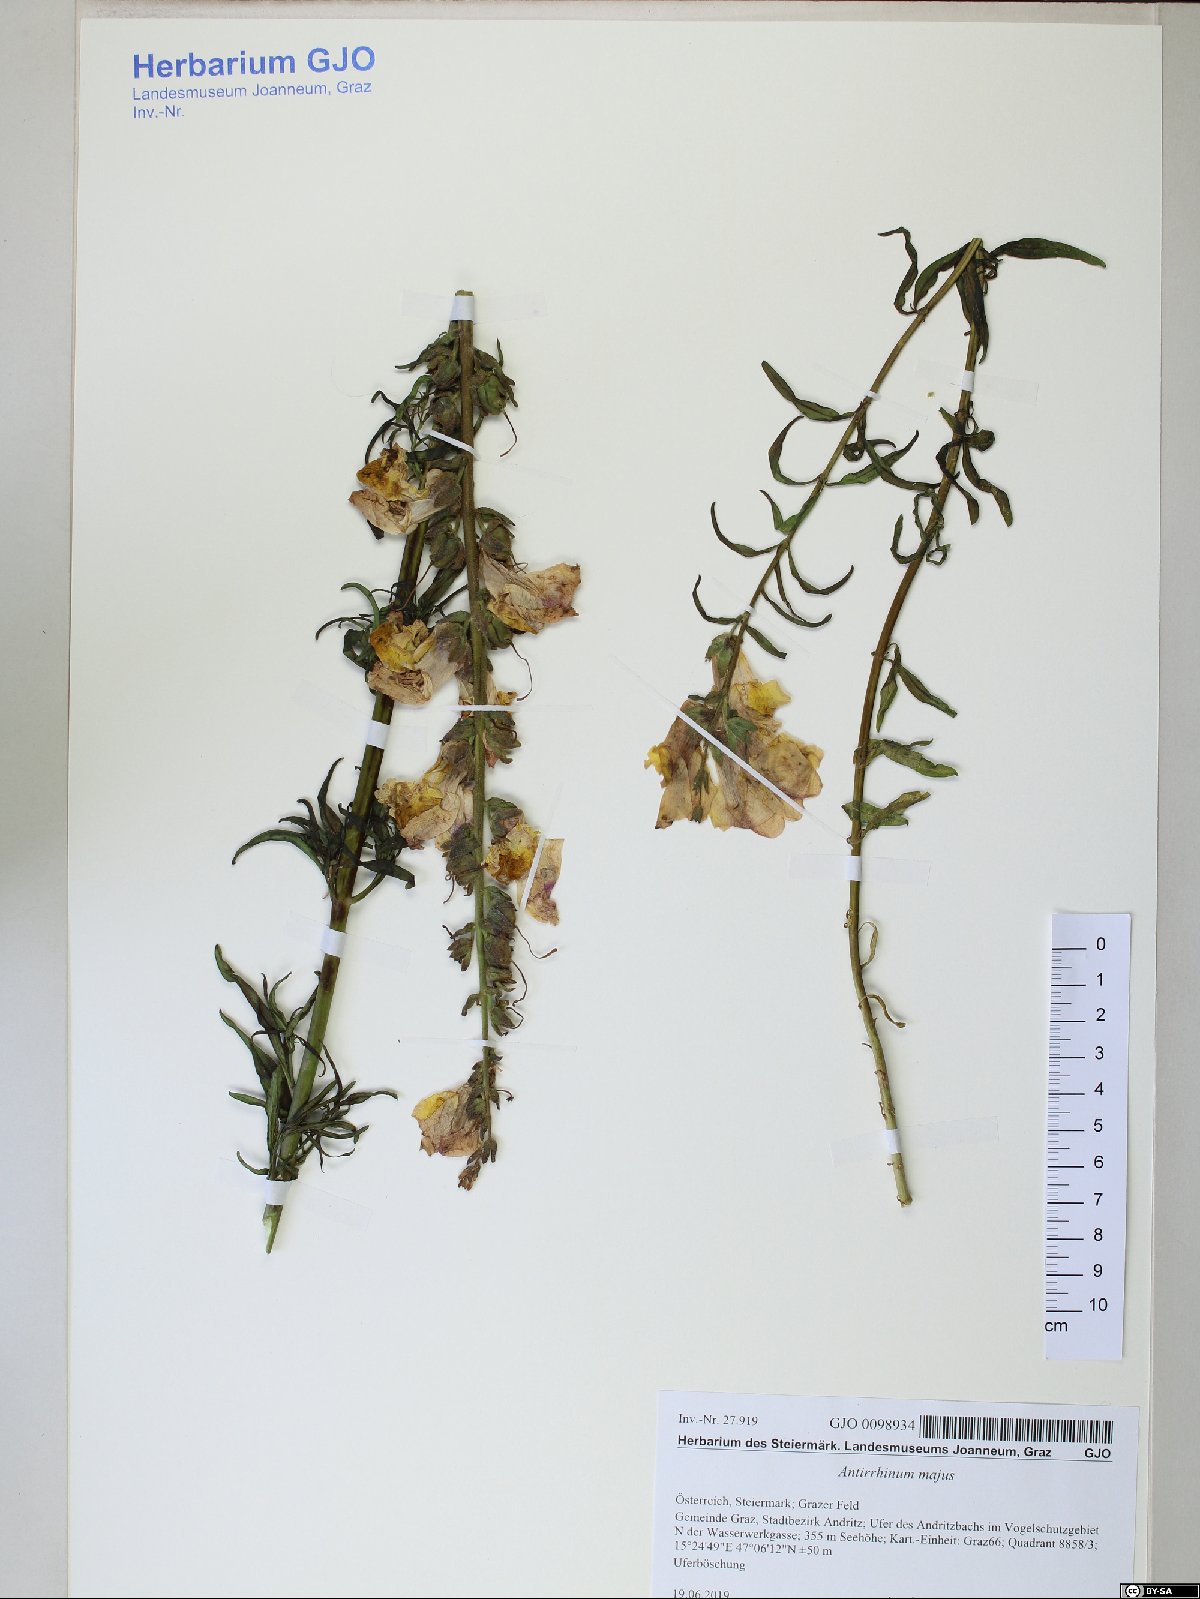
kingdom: Plantae
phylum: Tracheophyta
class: Magnoliopsida
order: Lamiales
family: Plantaginaceae
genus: Antirrhinum
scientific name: Antirrhinum majus
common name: Snapdragon
